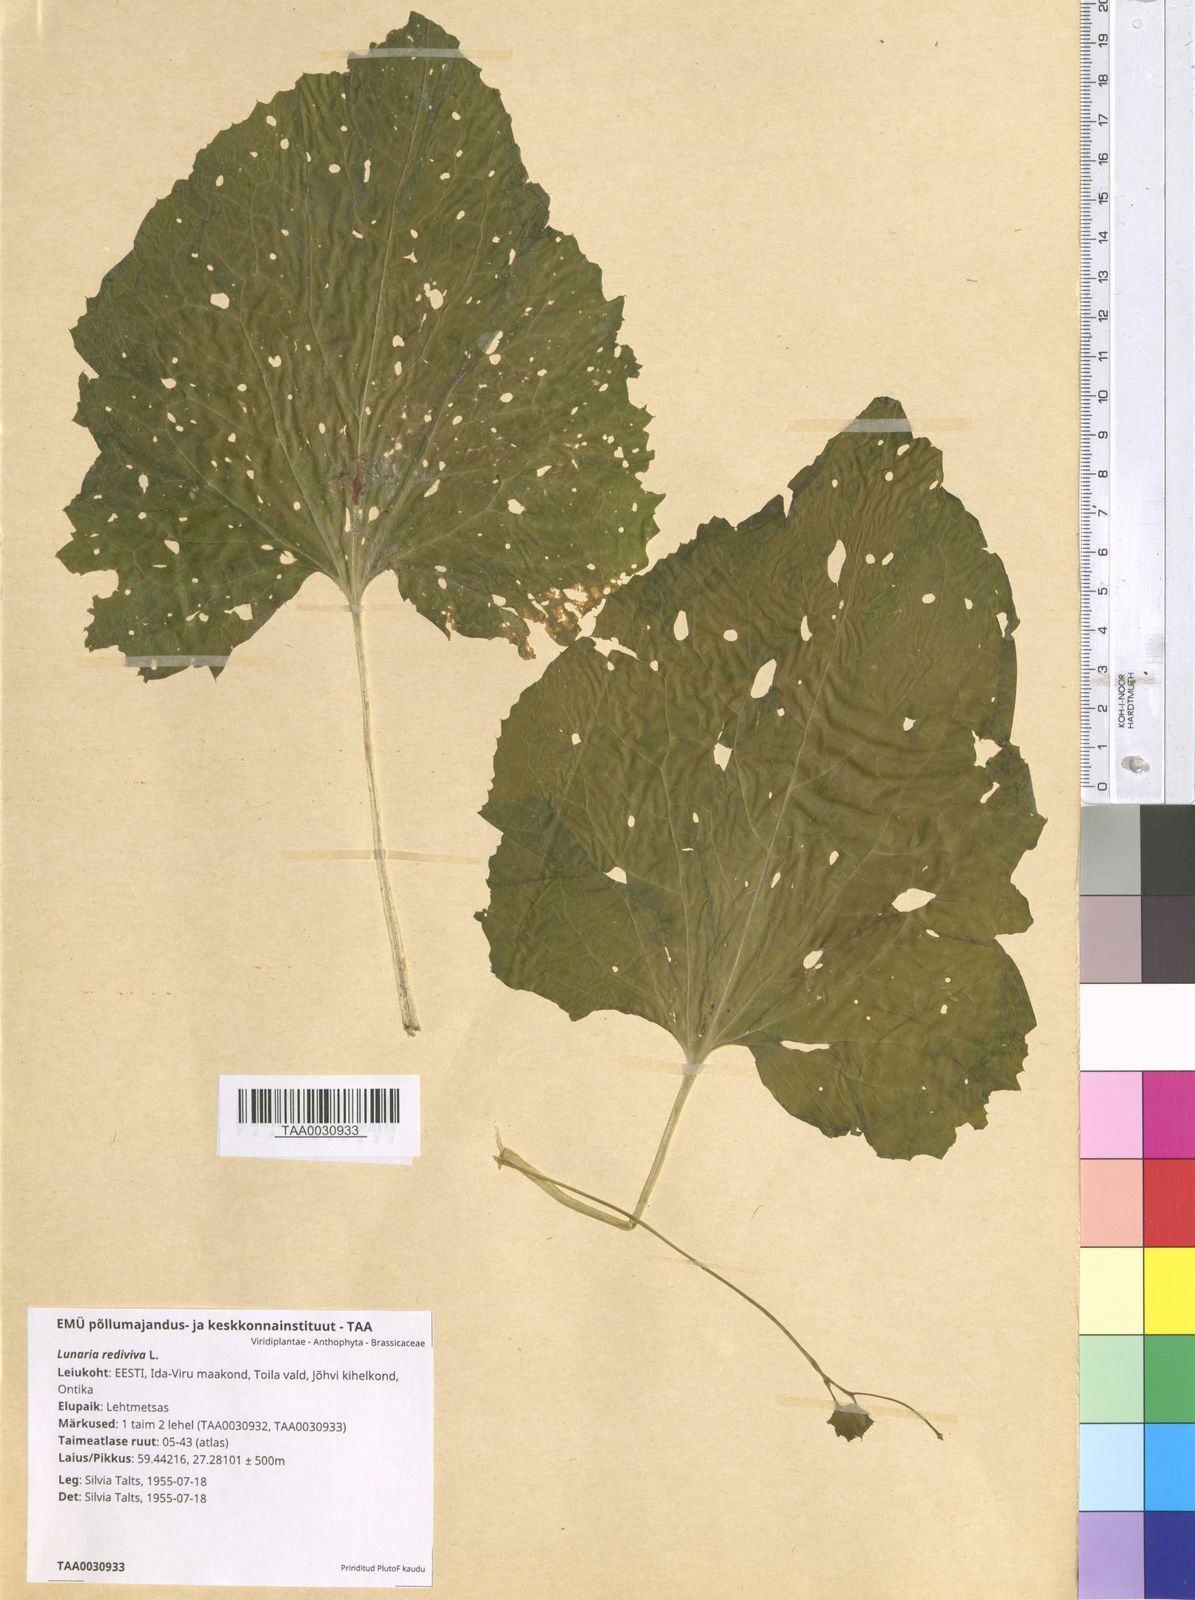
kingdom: Plantae
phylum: Tracheophyta
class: Magnoliopsida
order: Brassicales
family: Brassicaceae
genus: Lunaria
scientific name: Lunaria rediviva
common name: Perennial honesty
